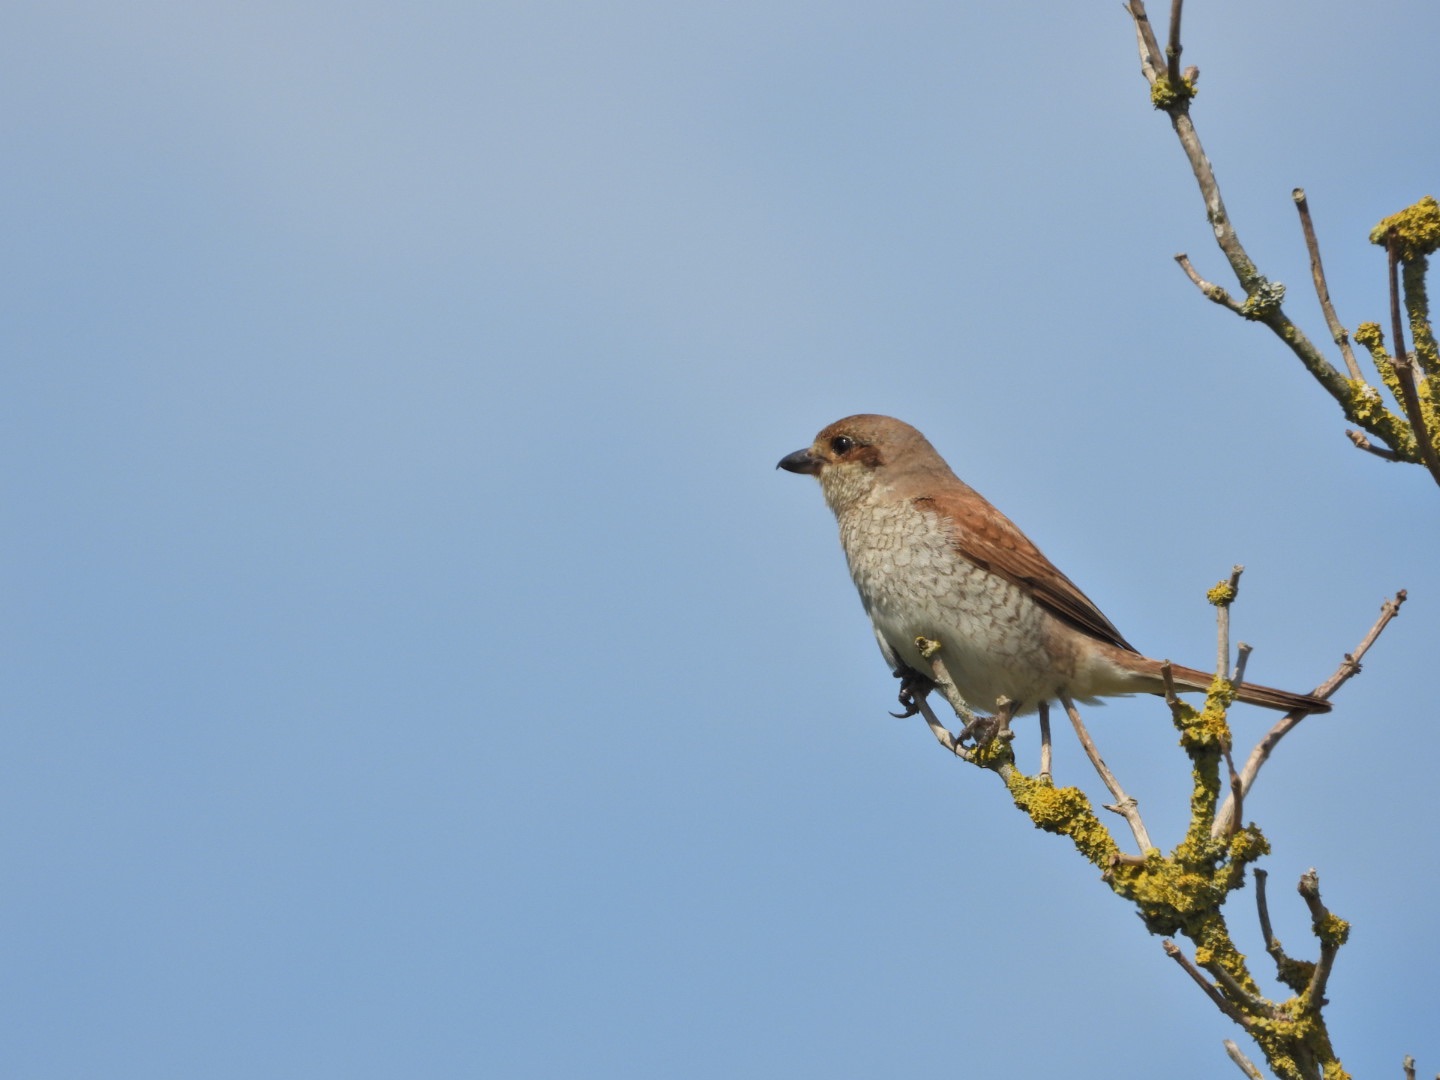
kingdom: Animalia
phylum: Chordata
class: Aves
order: Passeriformes
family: Laniidae
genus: Lanius
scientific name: Lanius collurio
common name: Rødrygget tornskade
